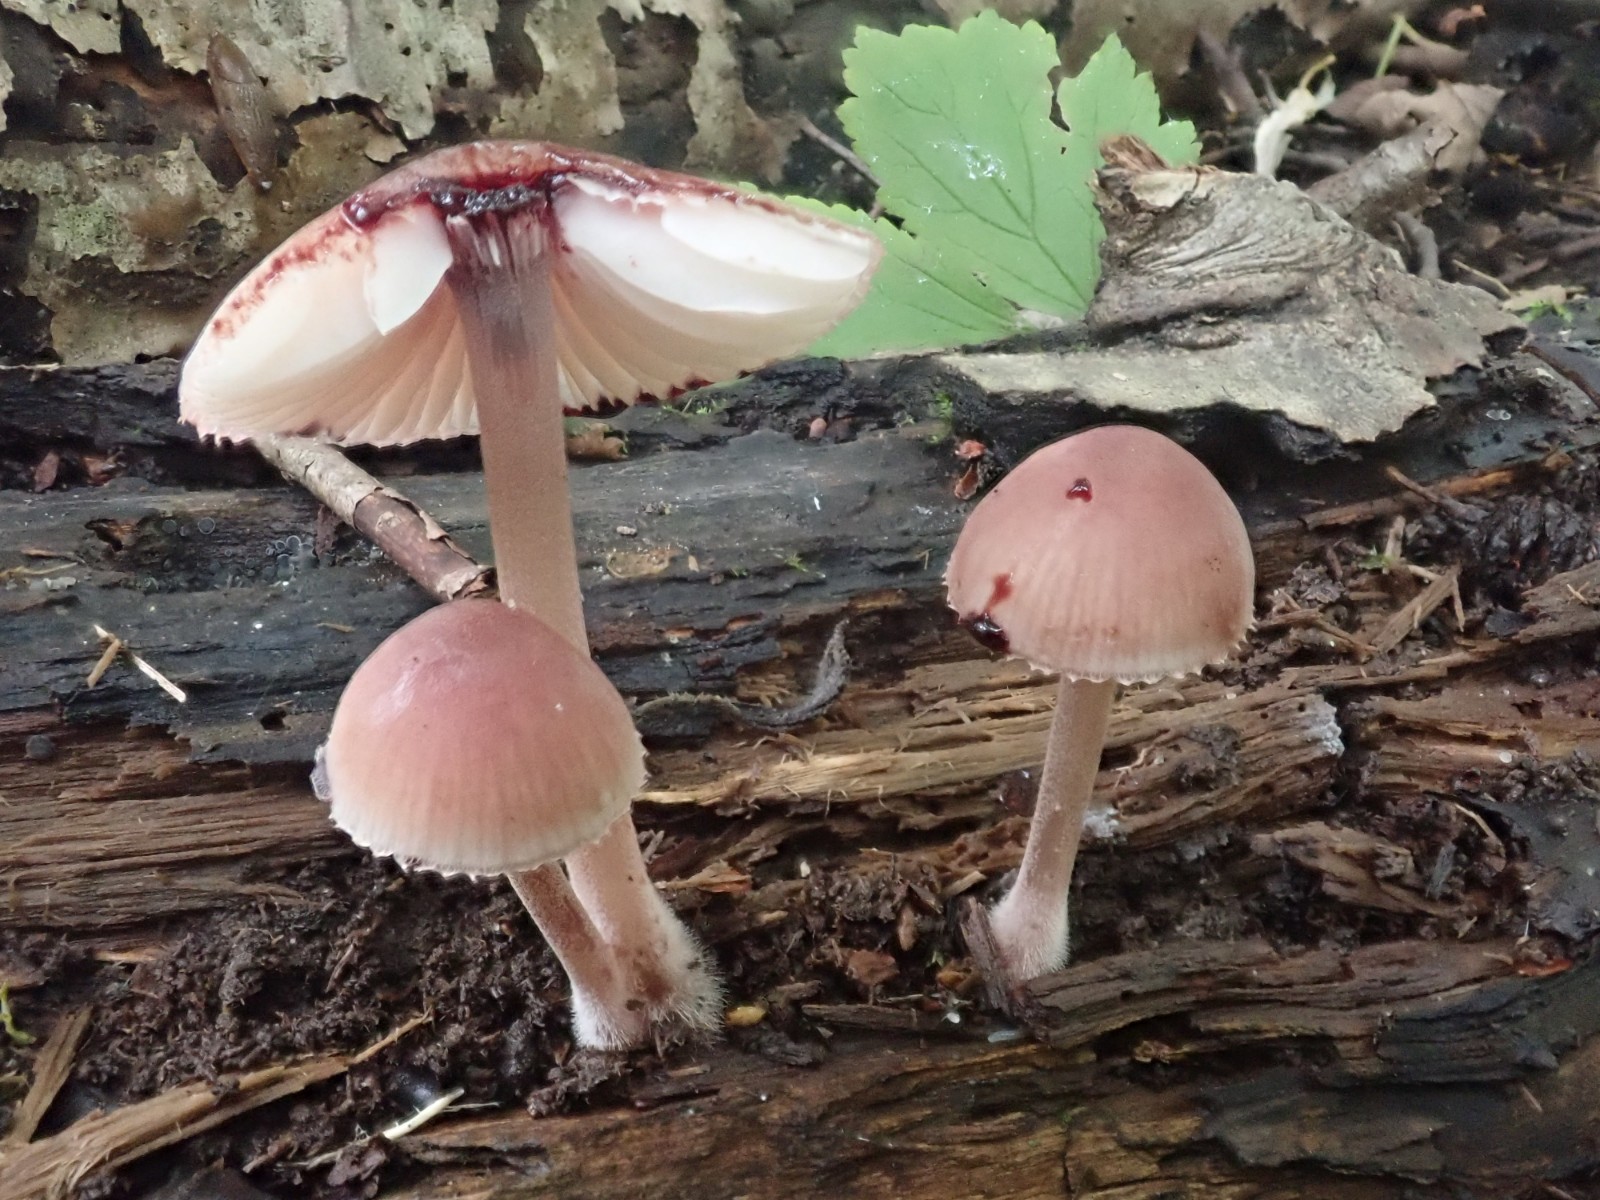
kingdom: Fungi
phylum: Basidiomycota
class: Agaricomycetes
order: Agaricales
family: Mycenaceae
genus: Mycena
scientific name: Mycena haematopus
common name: blødende huesvamp
